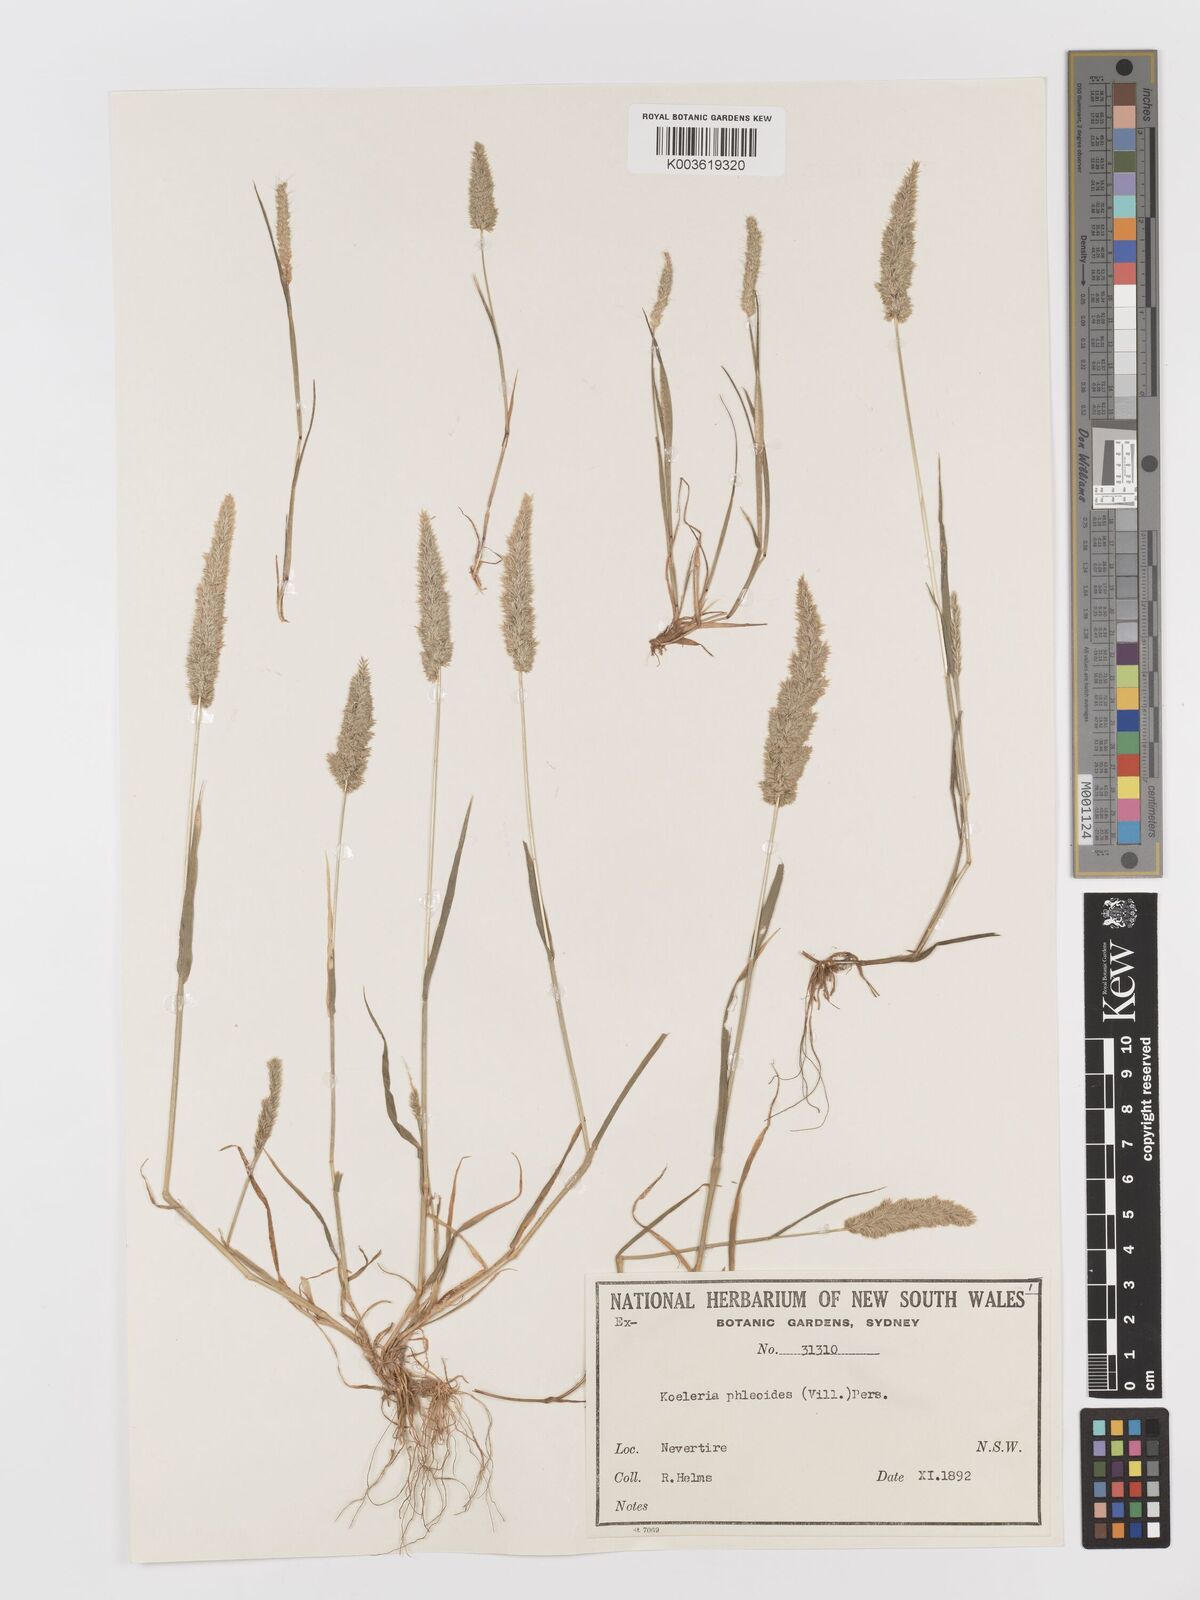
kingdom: Plantae
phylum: Tracheophyta
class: Liliopsida
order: Poales
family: Poaceae
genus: Rostraria
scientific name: Rostraria cristata
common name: Mediterranean hair-grass
